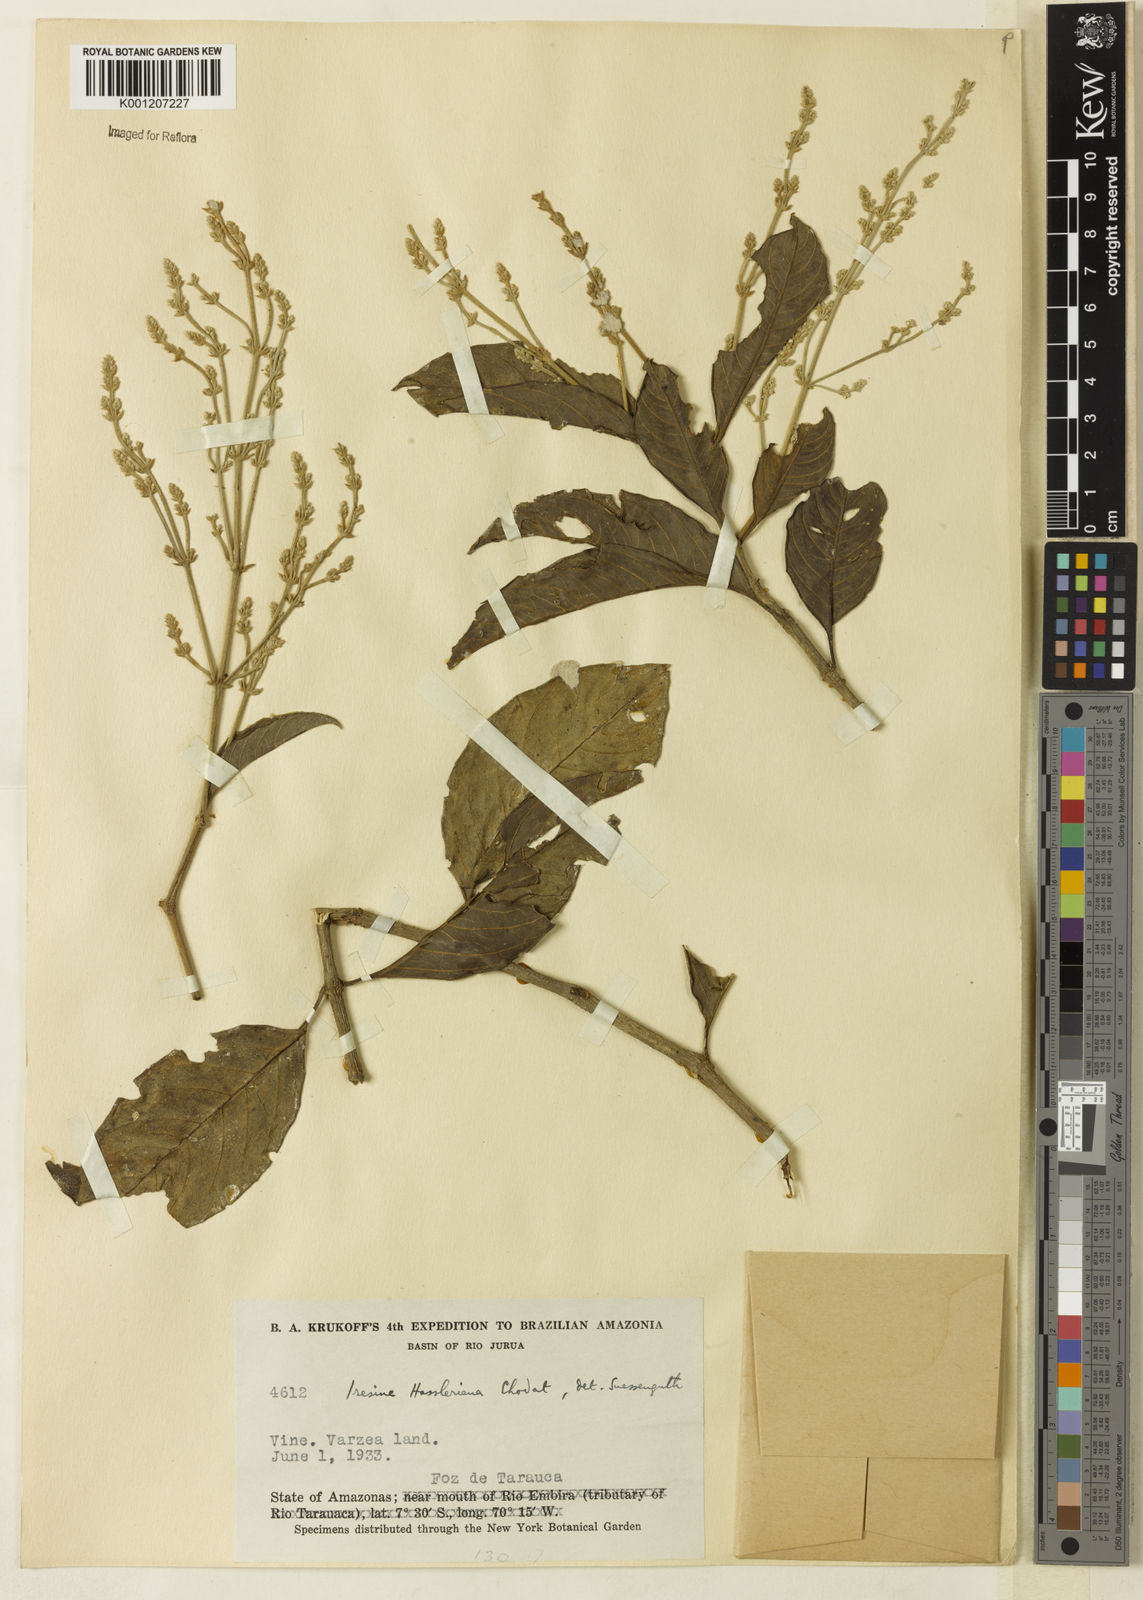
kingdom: Plantae
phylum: Tracheophyta
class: Magnoliopsida
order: Caryophyllales
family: Amaranthaceae
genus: Pedersenia
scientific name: Pedersenia hassleriana
